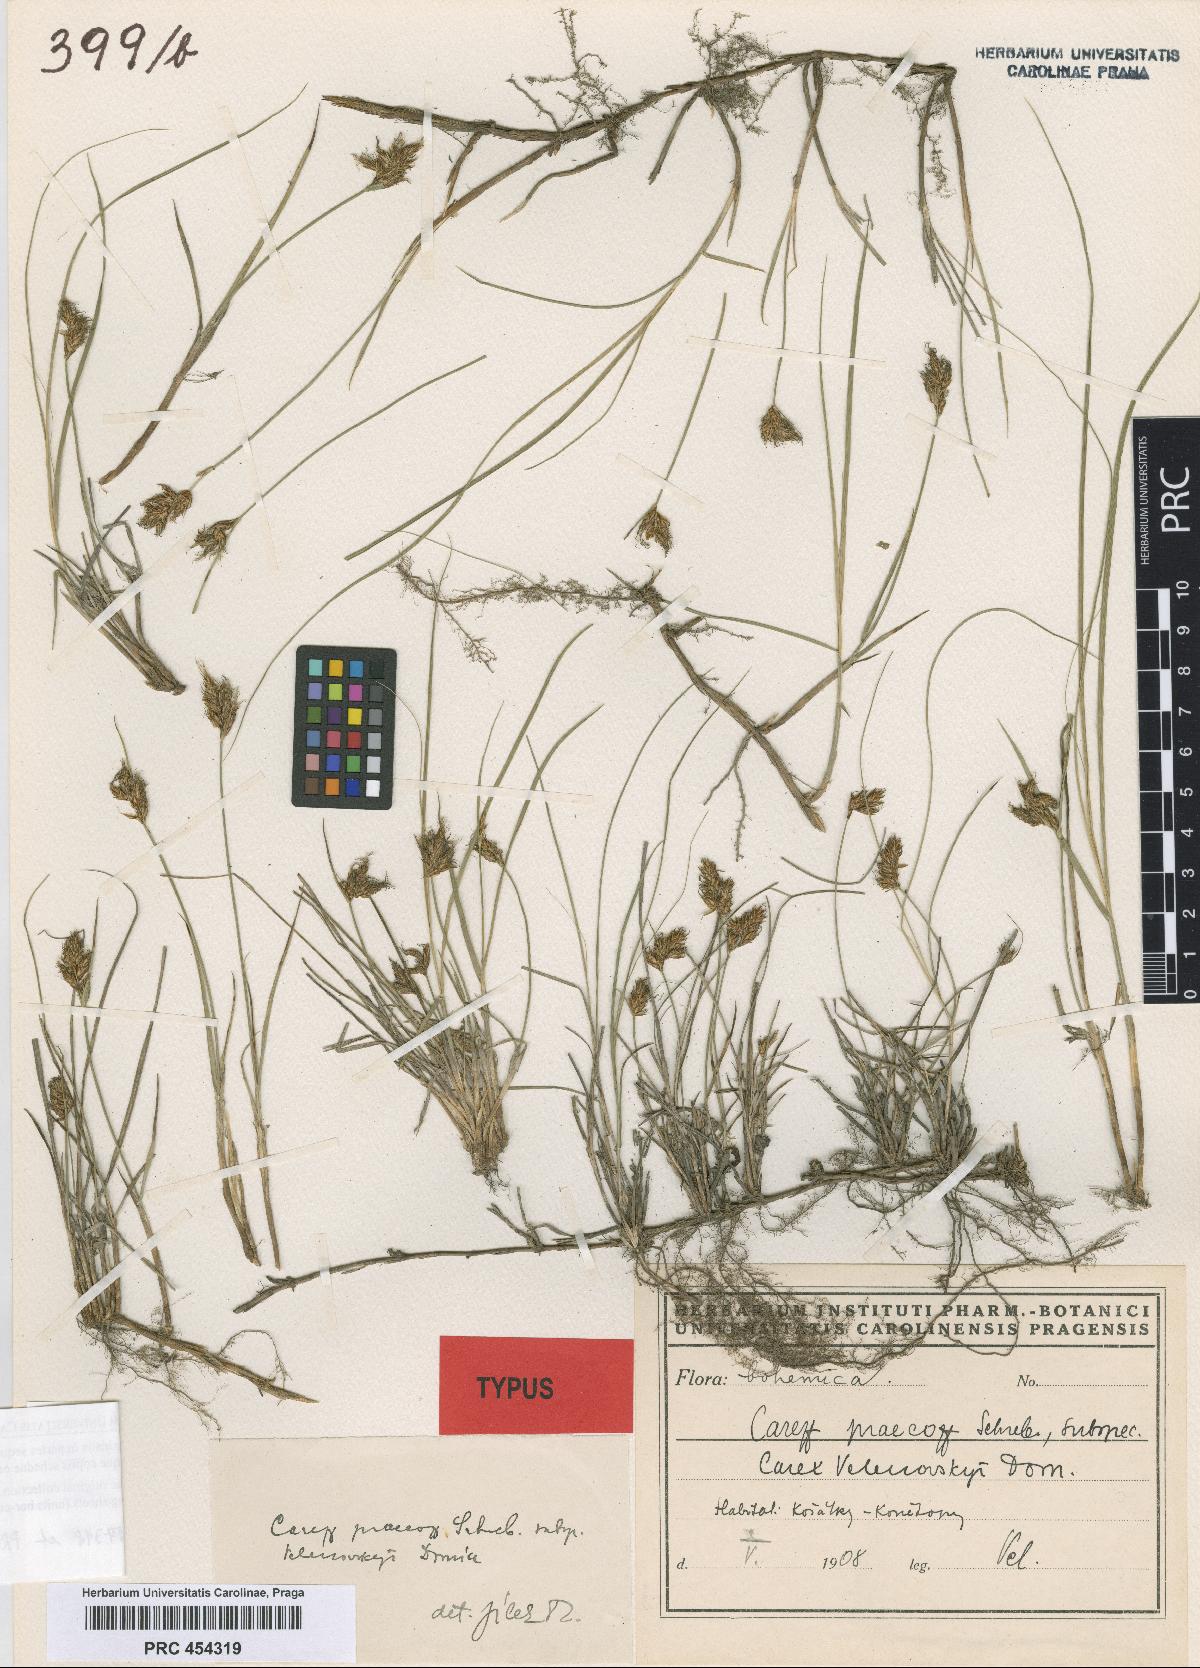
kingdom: Plantae
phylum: Tracheophyta
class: Liliopsida
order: Poales
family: Cyperaceae
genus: Carex
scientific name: Carex praecox
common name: Early sedge
